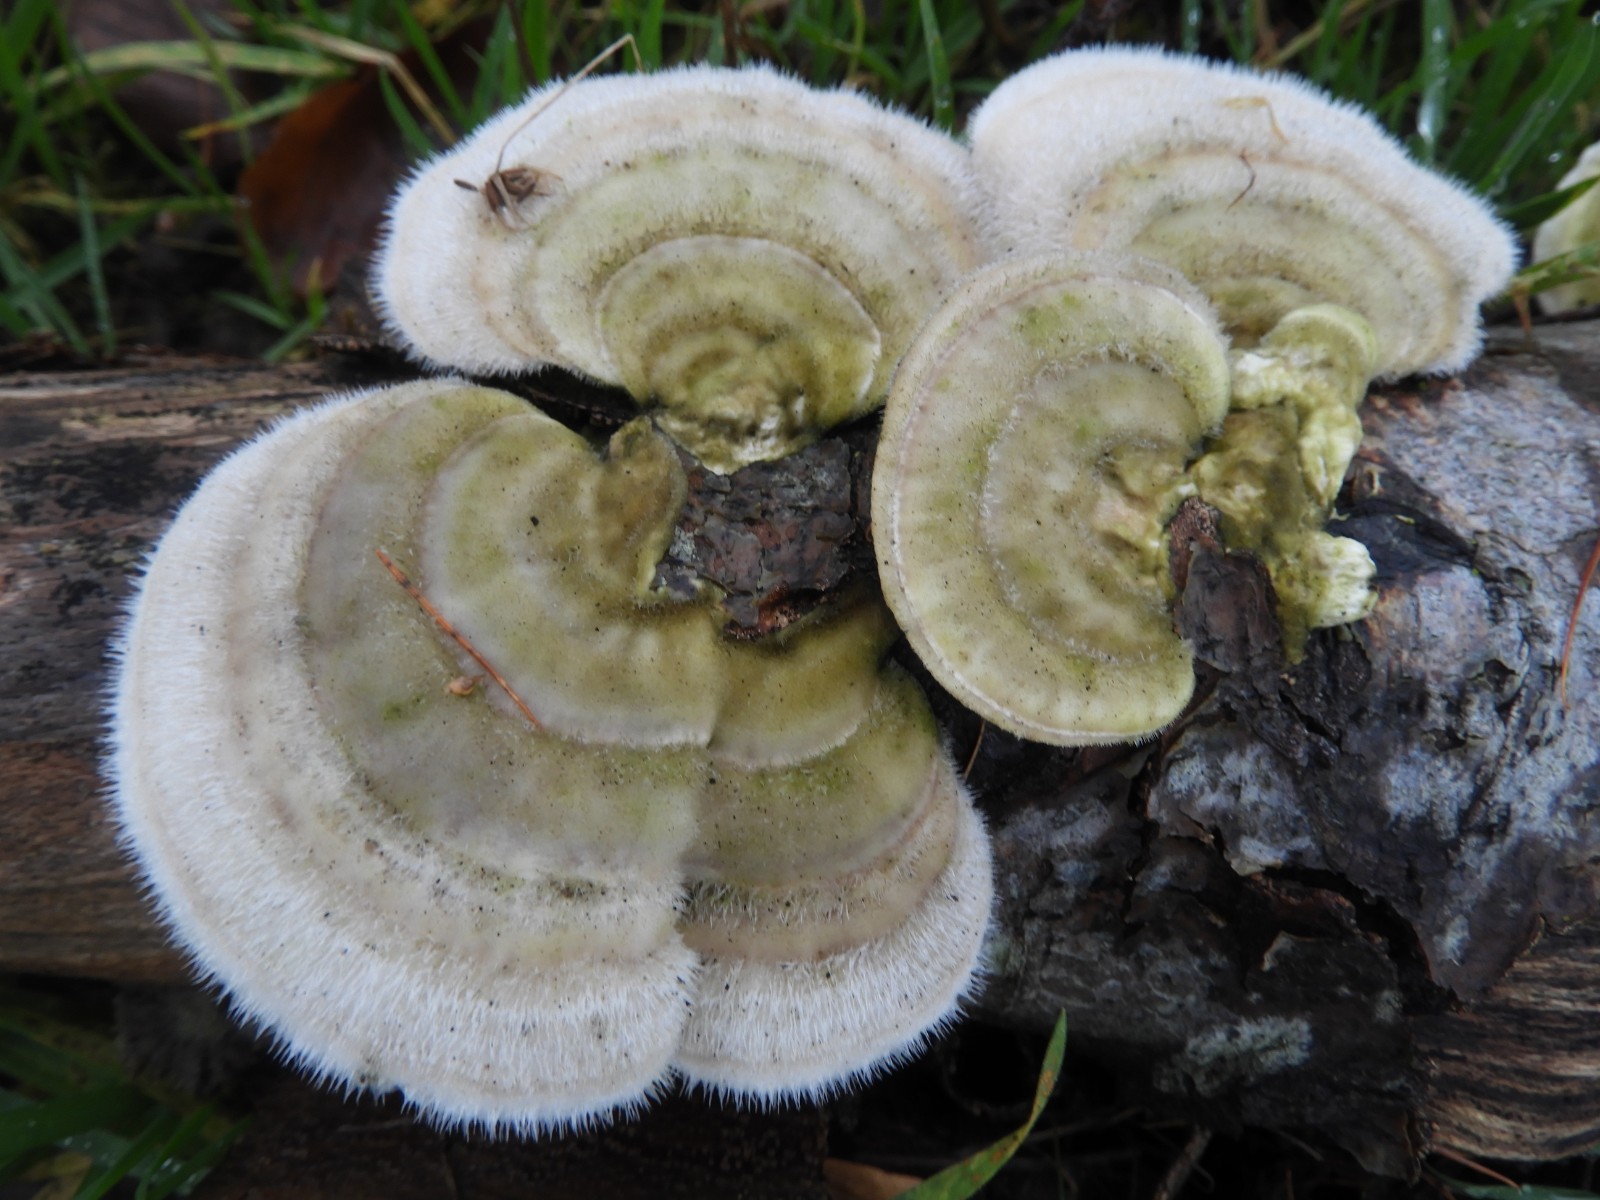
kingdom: Fungi
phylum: Basidiomycota
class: Agaricomycetes
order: Polyporales
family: Polyporaceae
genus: Trametes
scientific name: Trametes hirsuta
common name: håret læderporesvamp
